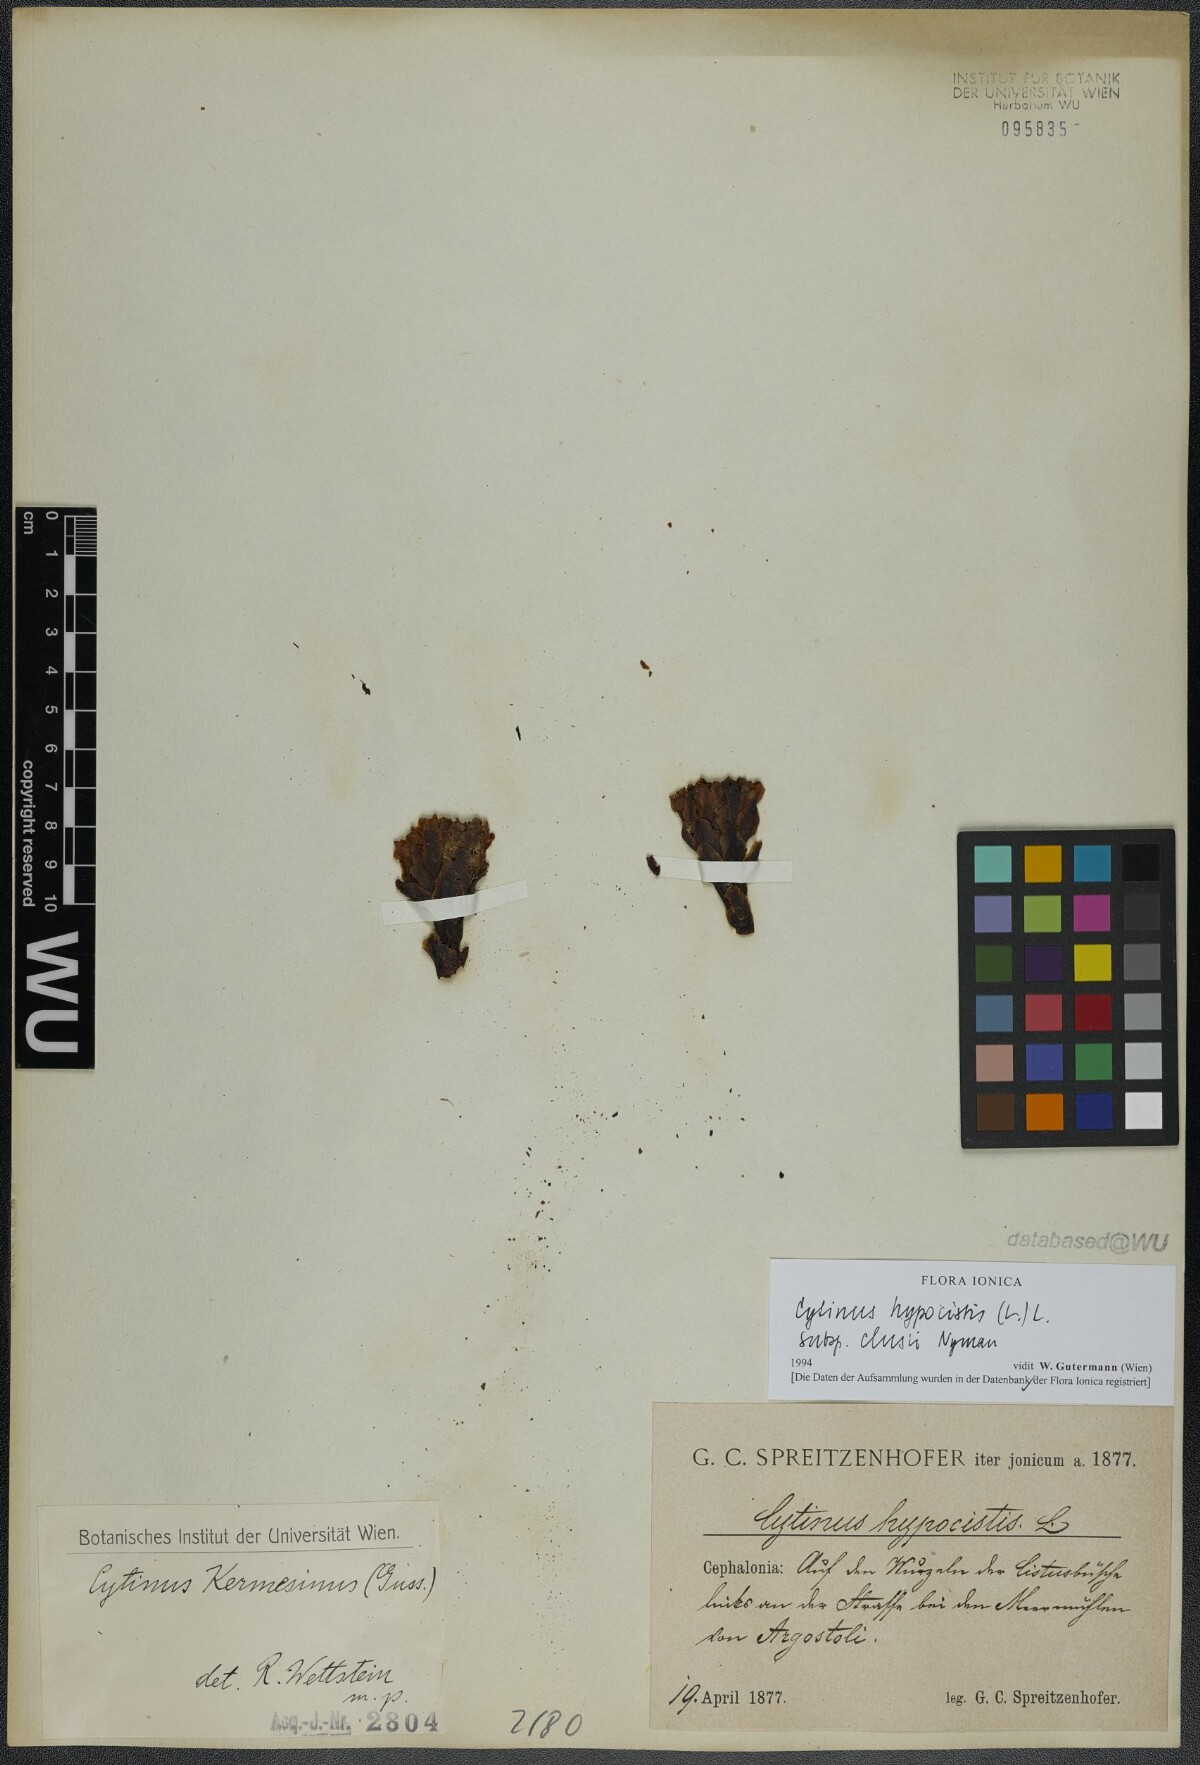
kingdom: Plantae
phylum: Tracheophyta
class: Magnoliopsida
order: Malvales
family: Cytinaceae
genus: Cytinus
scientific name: Cytinus ruber
